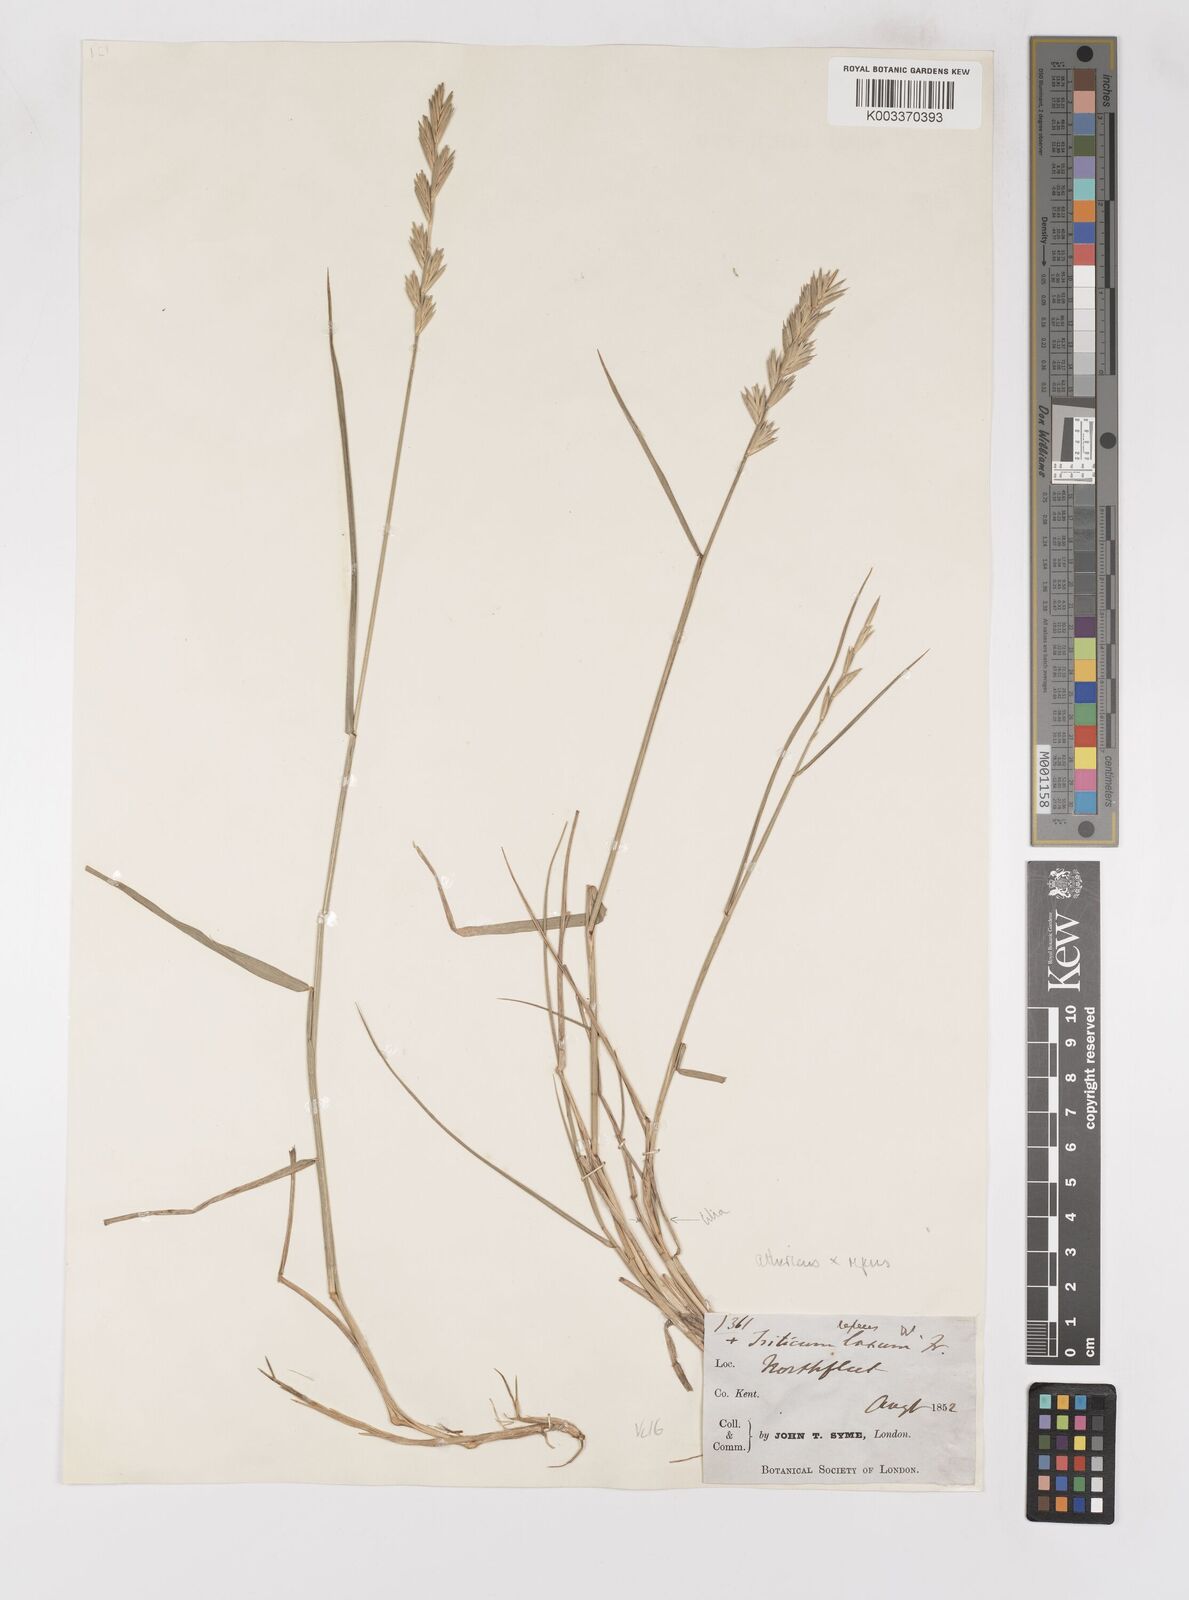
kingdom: Plantae
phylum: Tracheophyta
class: Liliopsida
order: Poales
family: Poaceae
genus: Elymus
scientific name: Elymus oliveri
